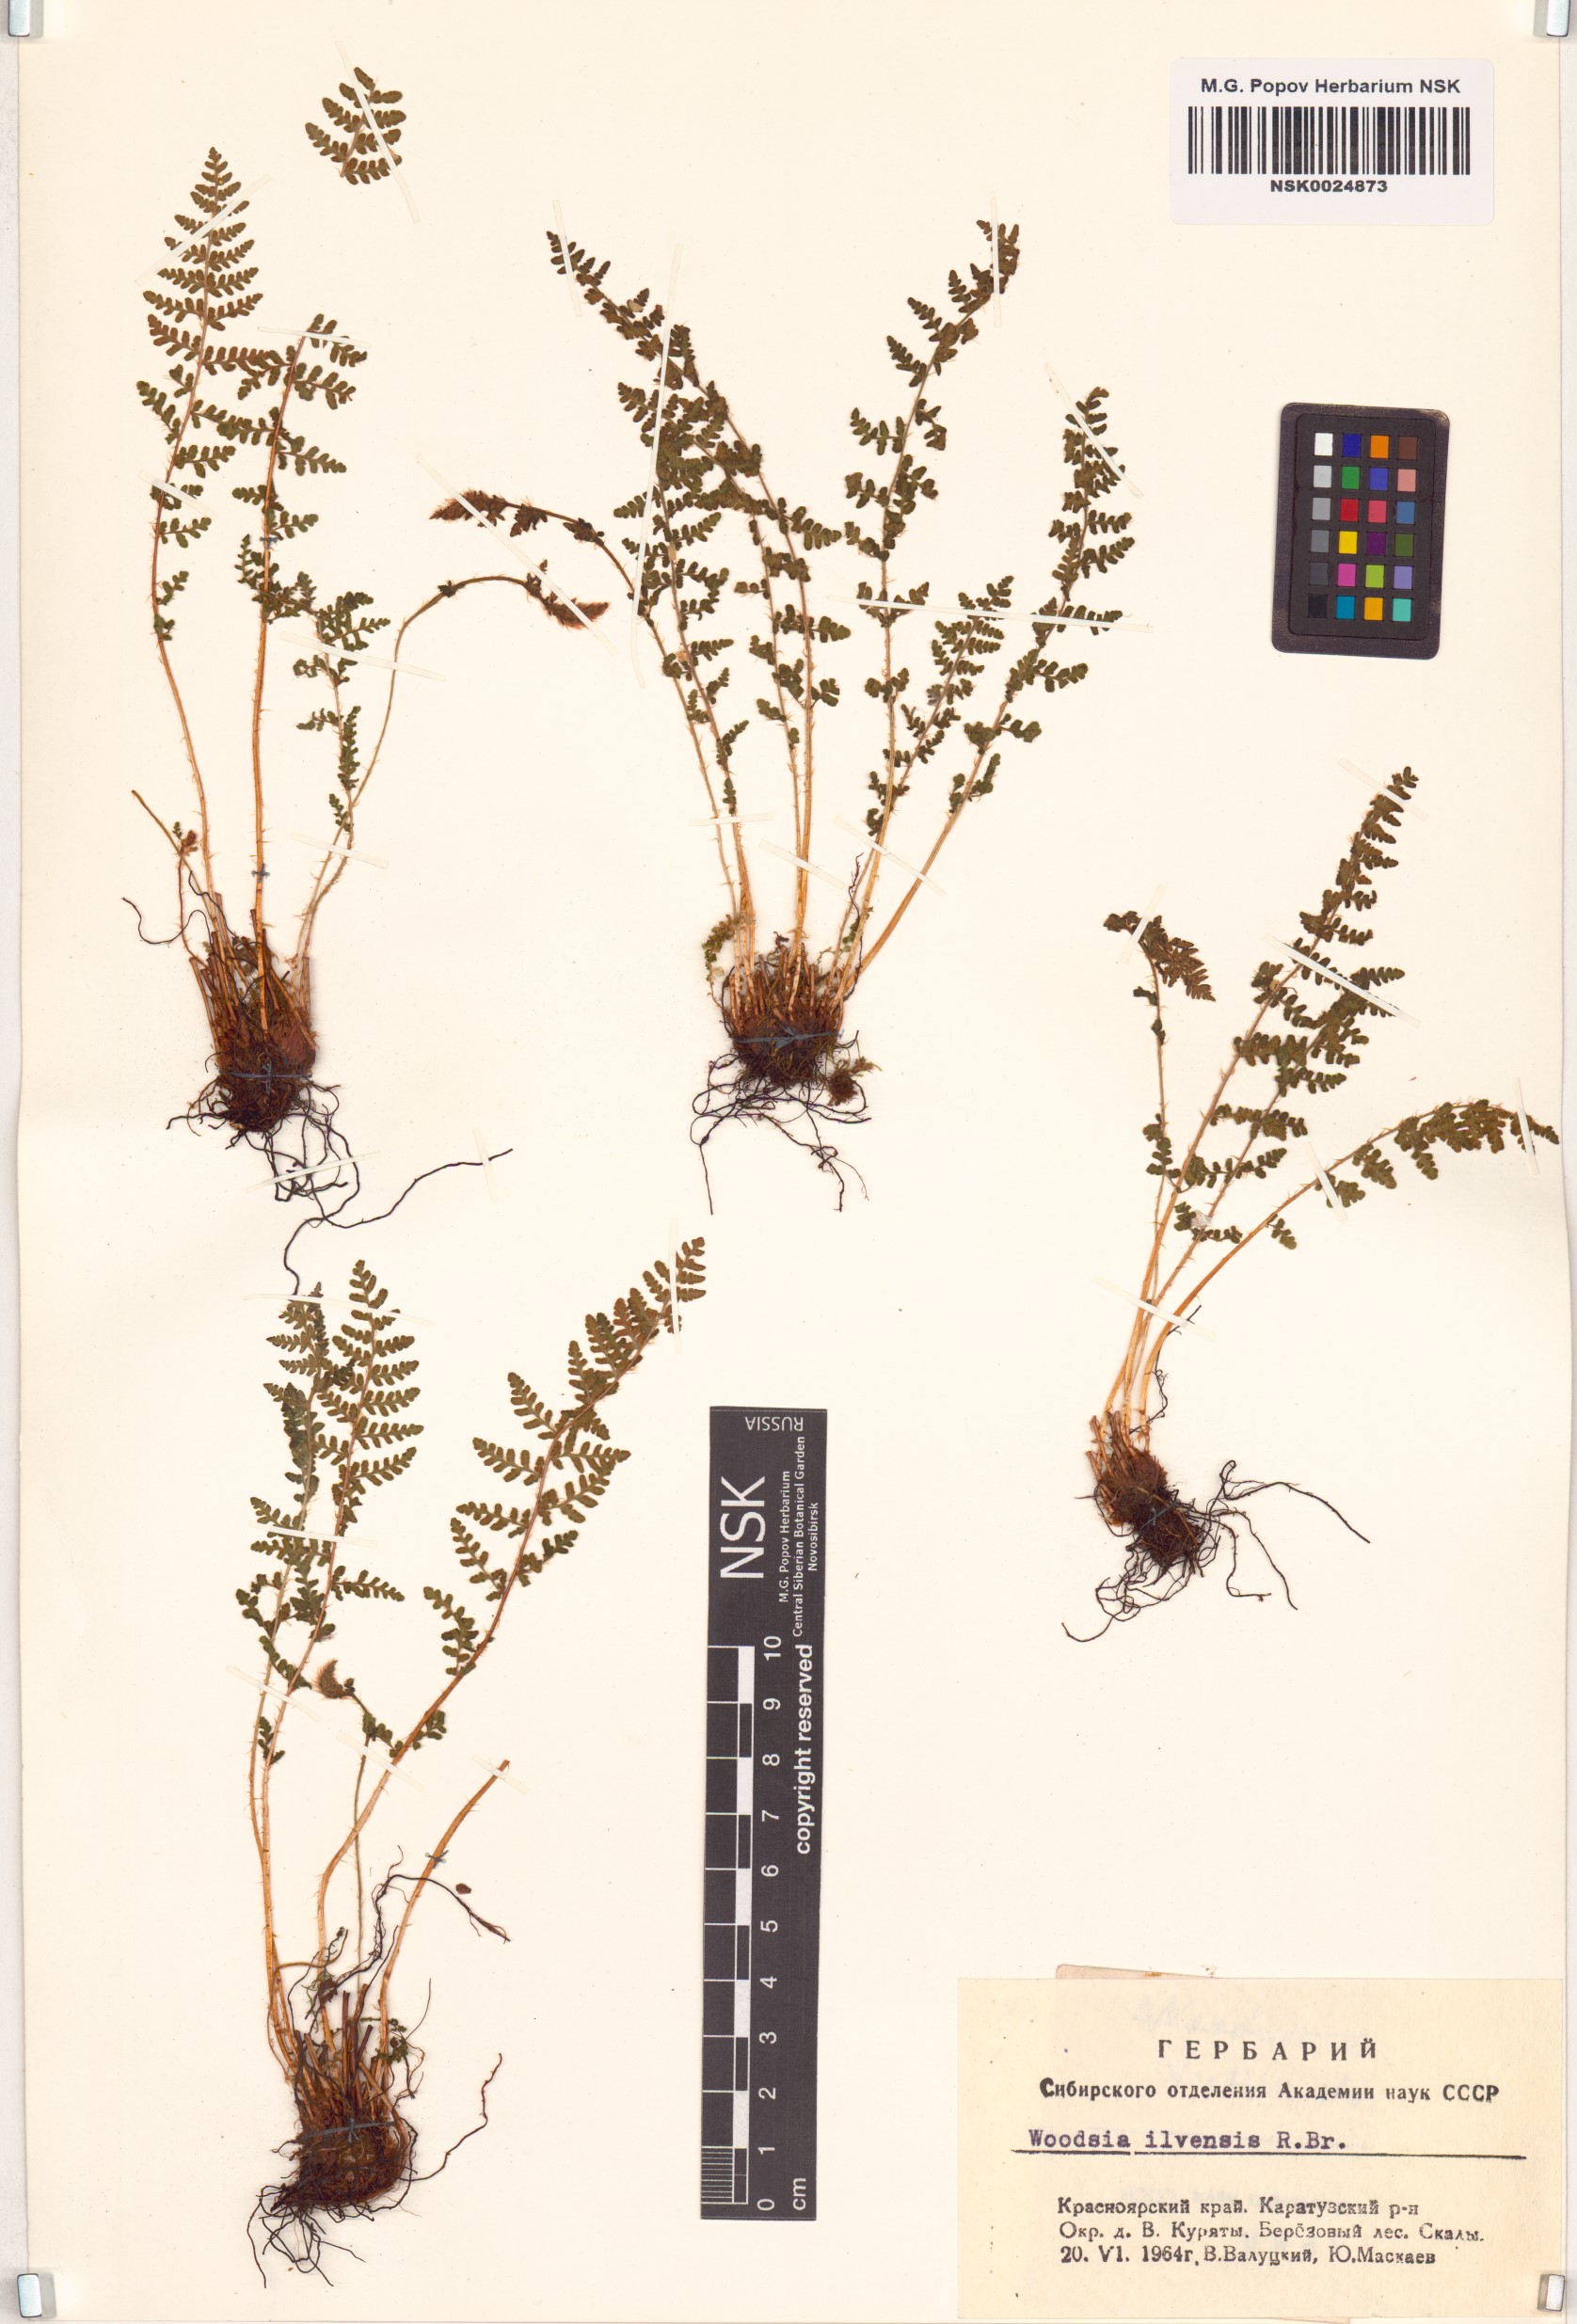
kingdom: Plantae
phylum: Tracheophyta
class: Polypodiopsida
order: Polypodiales
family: Woodsiaceae
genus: Woodsia
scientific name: Woodsia ilvensis
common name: Fragrant woodsia
